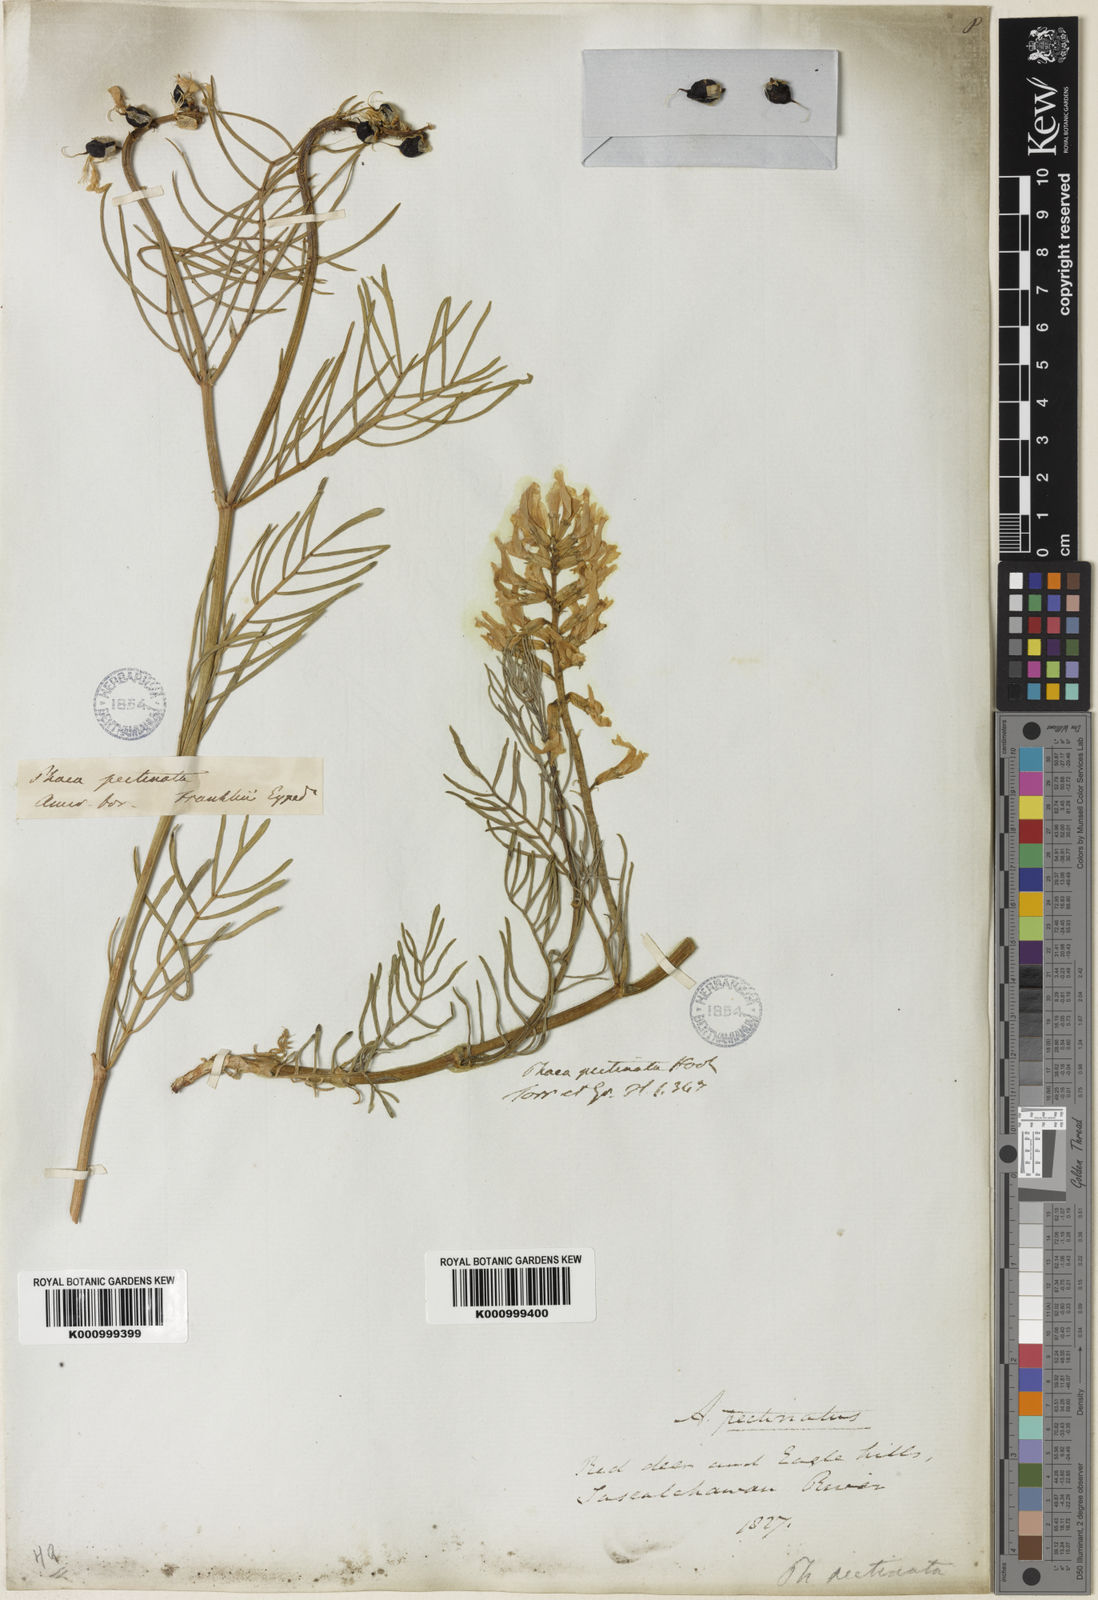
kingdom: Plantae
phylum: Tracheophyta
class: Magnoliopsida
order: Fabales
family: Fabaceae
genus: Astragalus
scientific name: Astragalus pectinatus
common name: Tine-leaf milk-vetch
